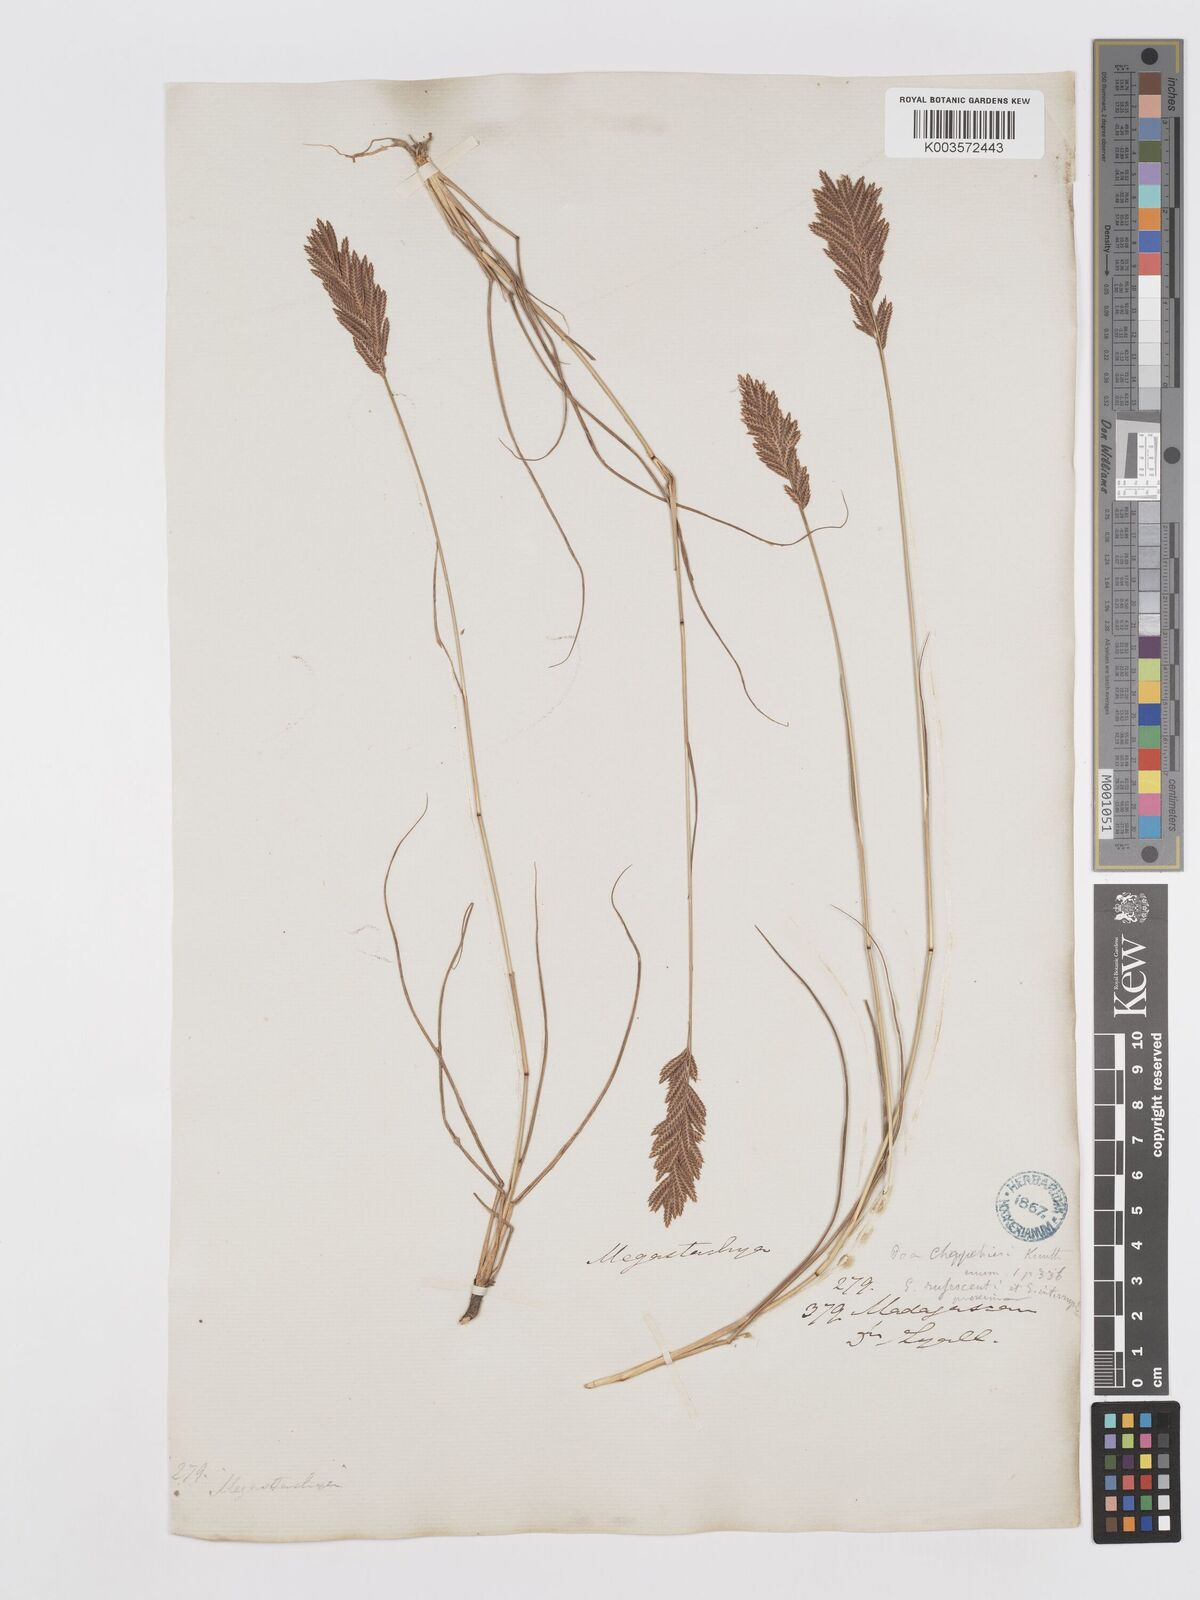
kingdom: Plantae
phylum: Tracheophyta
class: Liliopsida
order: Poales
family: Poaceae
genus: Eragrostis
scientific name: Eragrostis chapelieri
